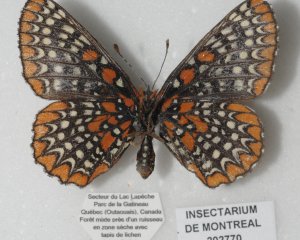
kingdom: Animalia
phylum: Arthropoda
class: Insecta
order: Lepidoptera
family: Nymphalidae
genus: Euphydryas
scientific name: Euphydryas phaeton
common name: Baltimore Checkerspot
